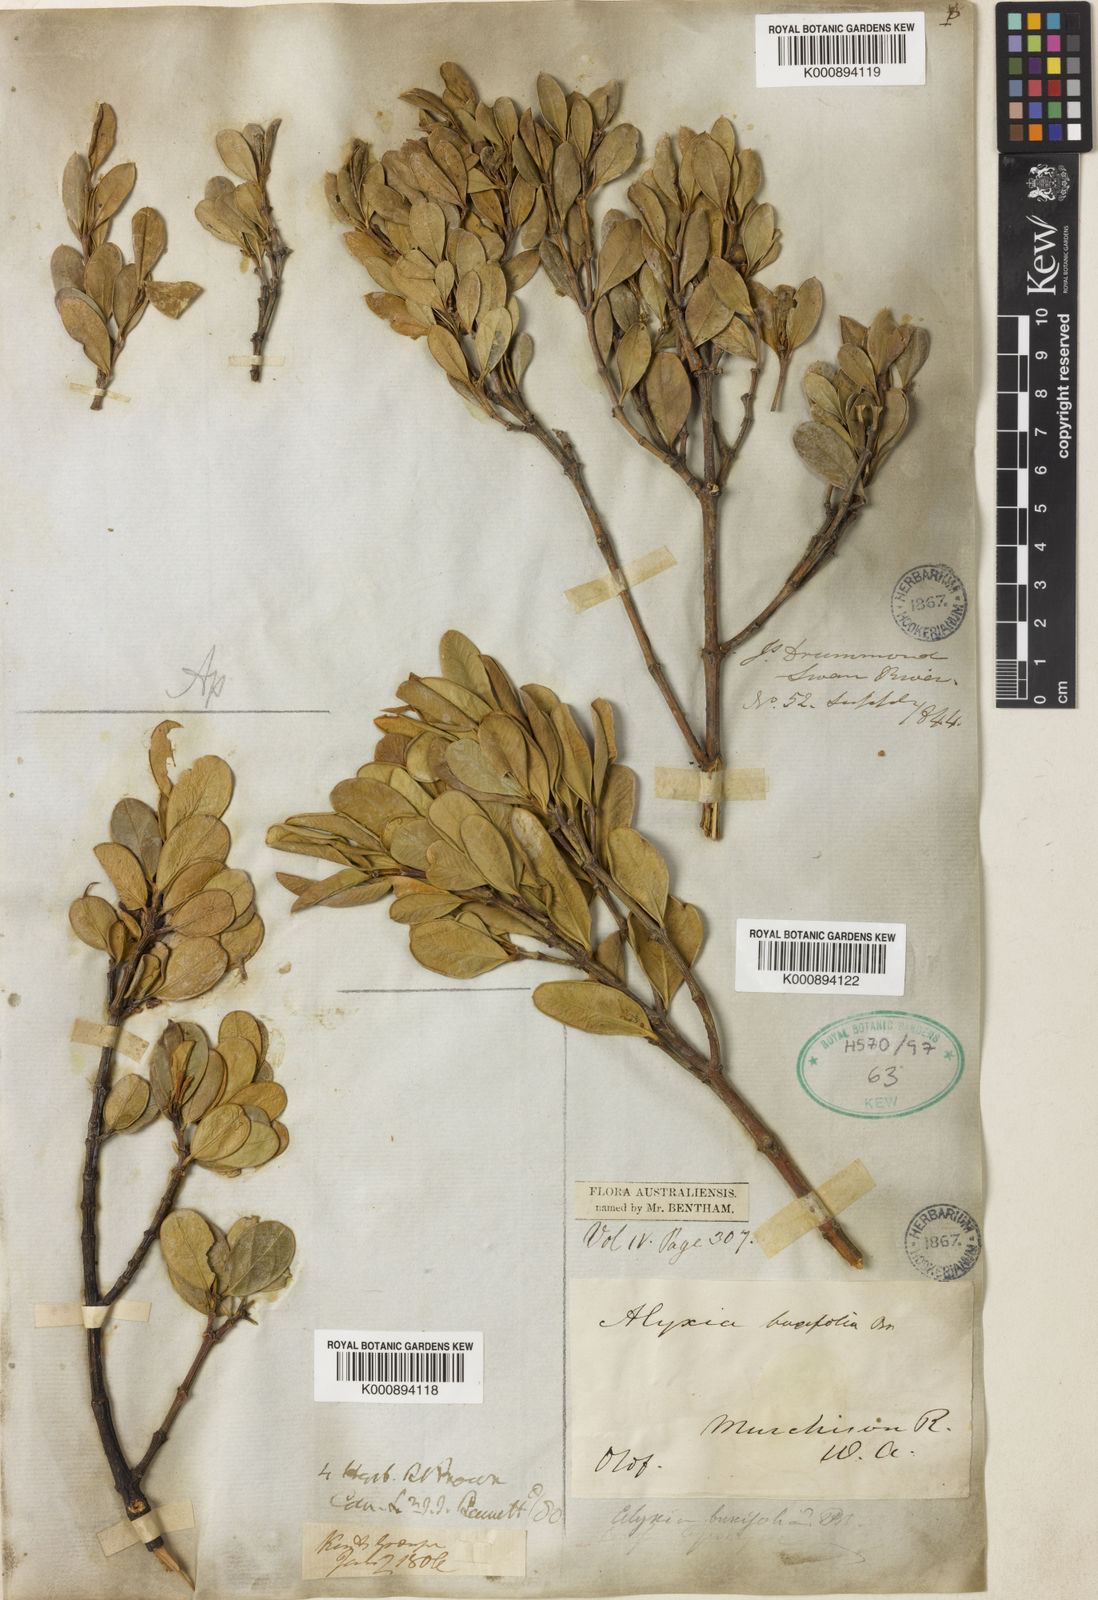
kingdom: Plantae
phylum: Tracheophyta
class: Magnoliopsida
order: Gentianales
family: Apocynaceae
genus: Alyxia
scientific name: Alyxia buxifolia
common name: Dysentery-bush
